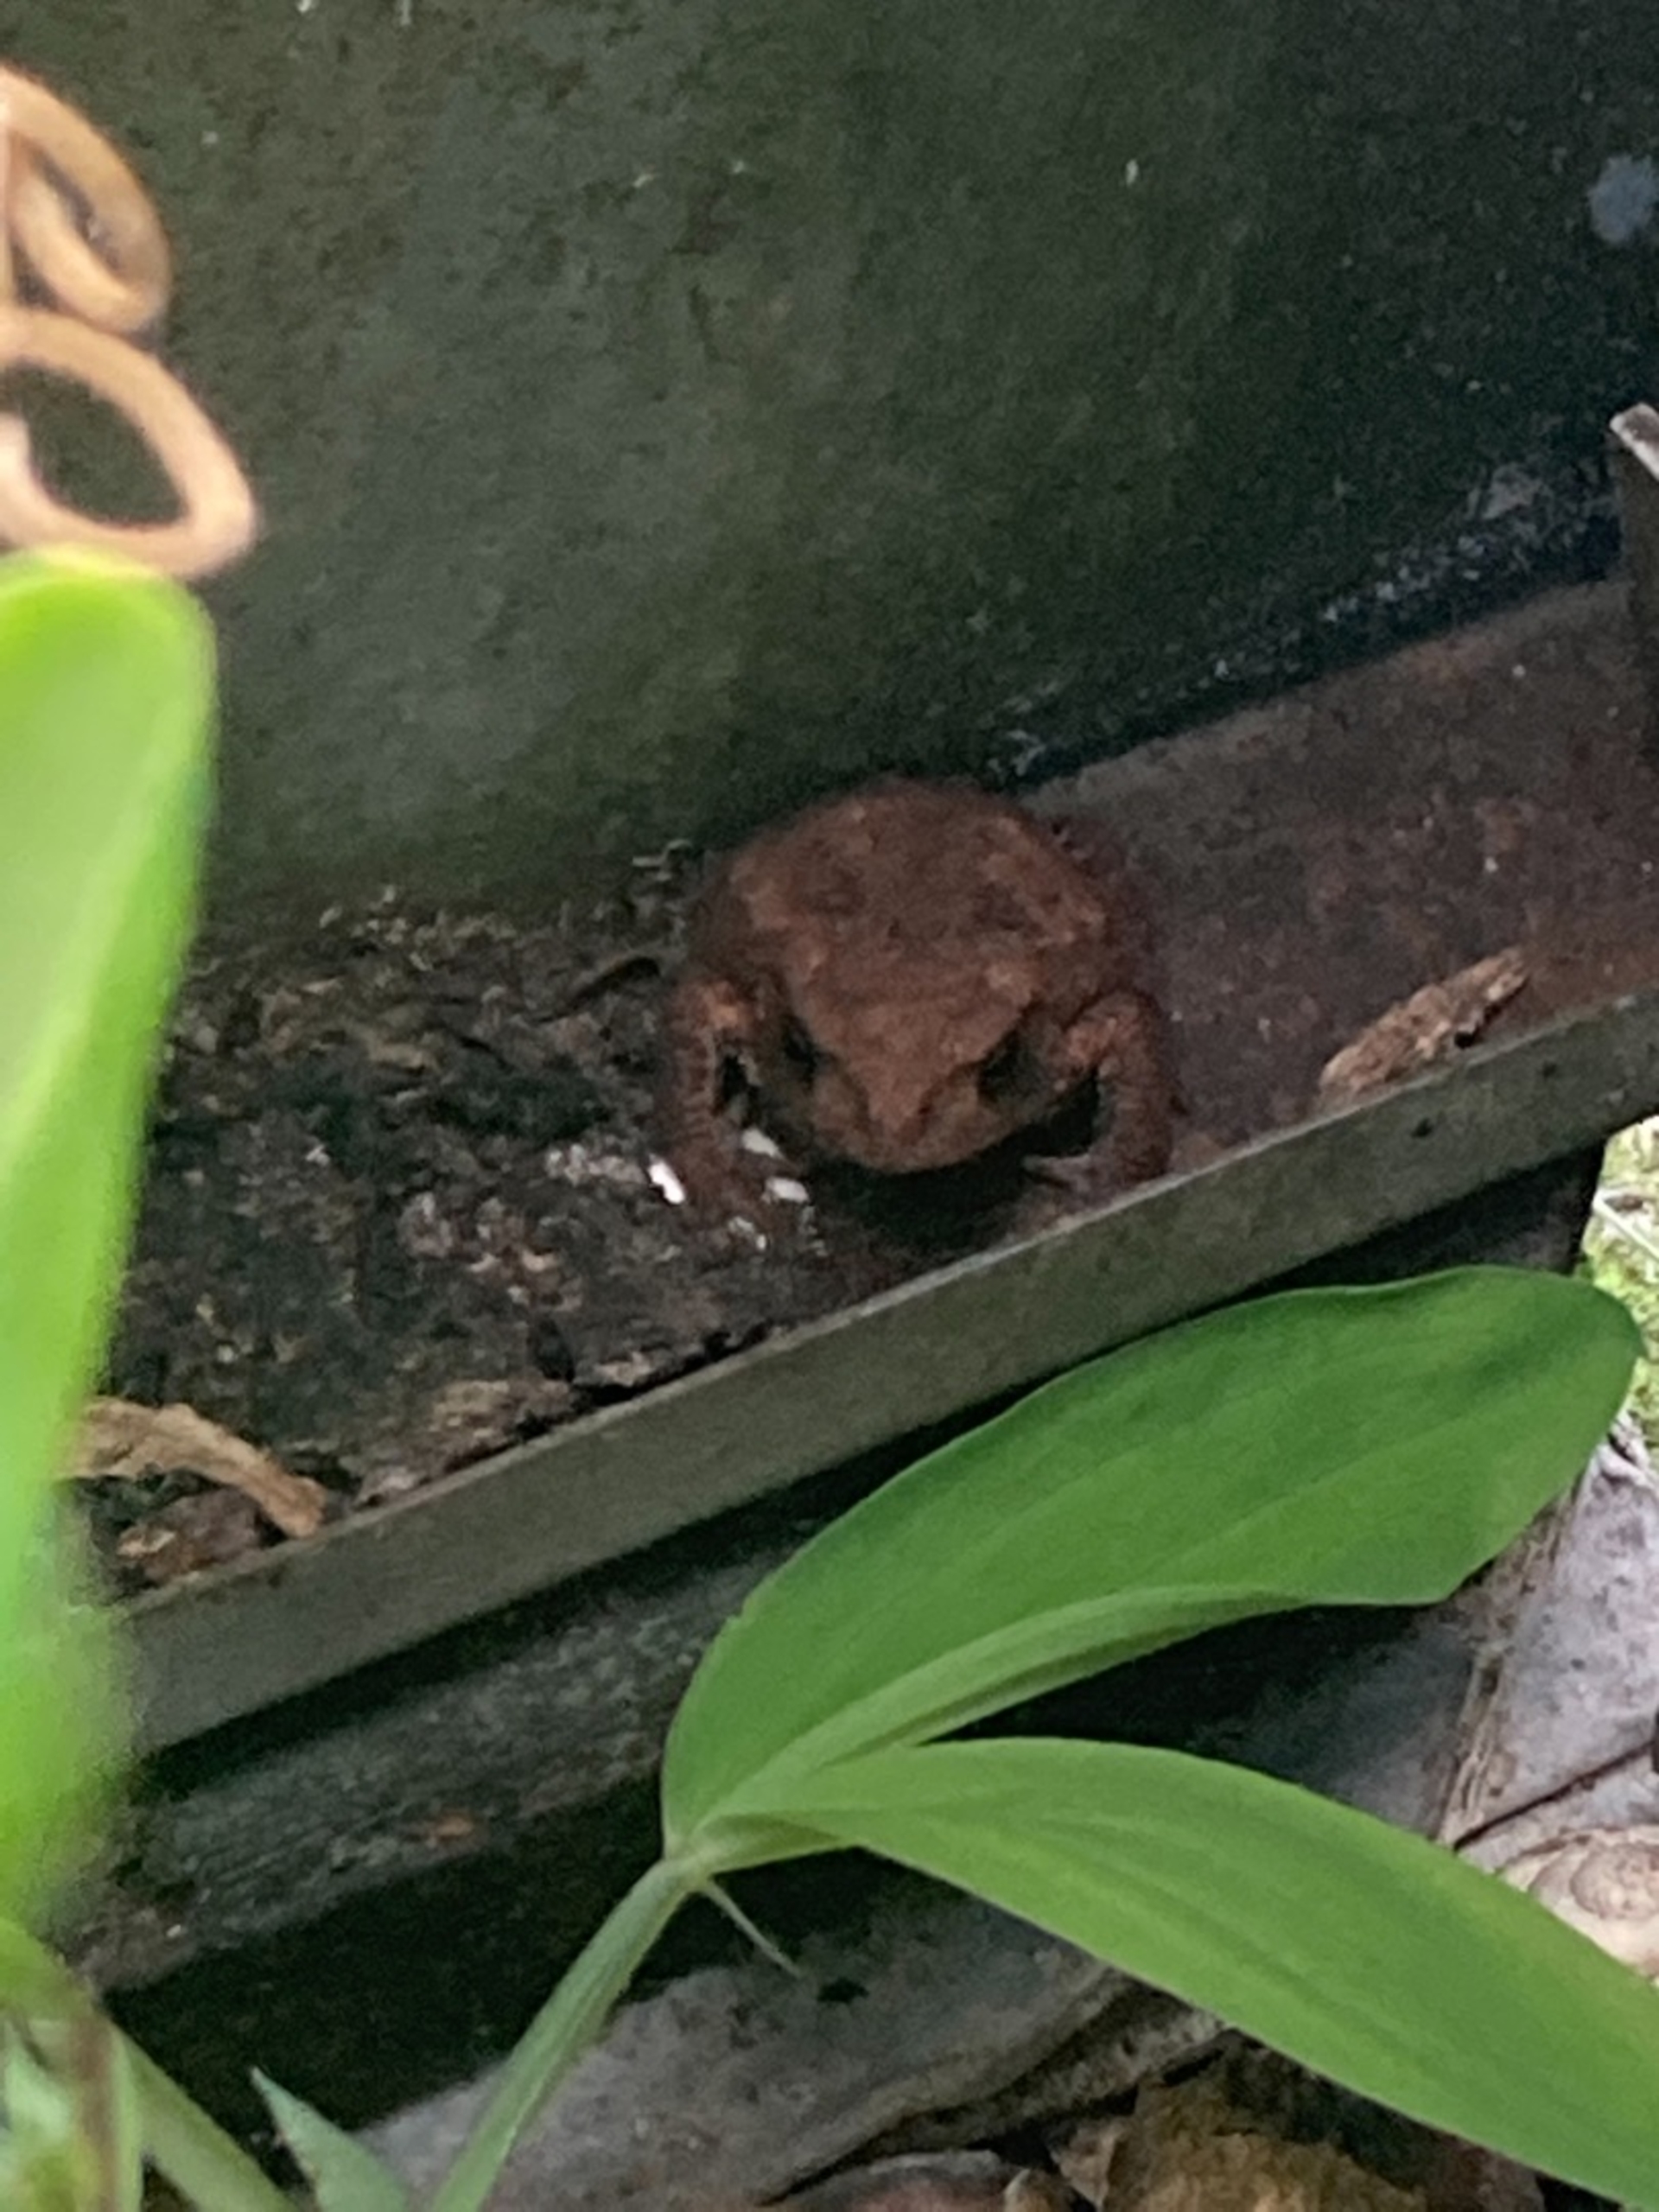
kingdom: Animalia
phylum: Chordata
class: Amphibia
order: Anura
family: Bufonidae
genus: Bufo
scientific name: Bufo bufo
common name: Skrubtudse
